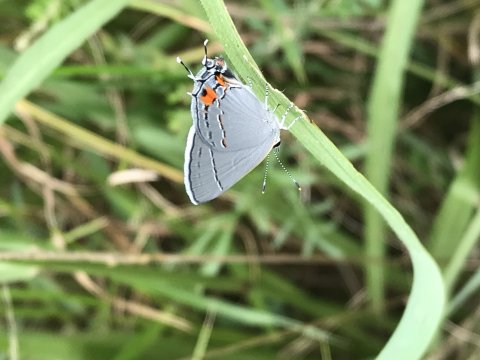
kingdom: Animalia
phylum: Arthropoda
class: Insecta
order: Lepidoptera
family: Lycaenidae
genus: Strymon
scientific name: Strymon melinus
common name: Gray Hairstreak
